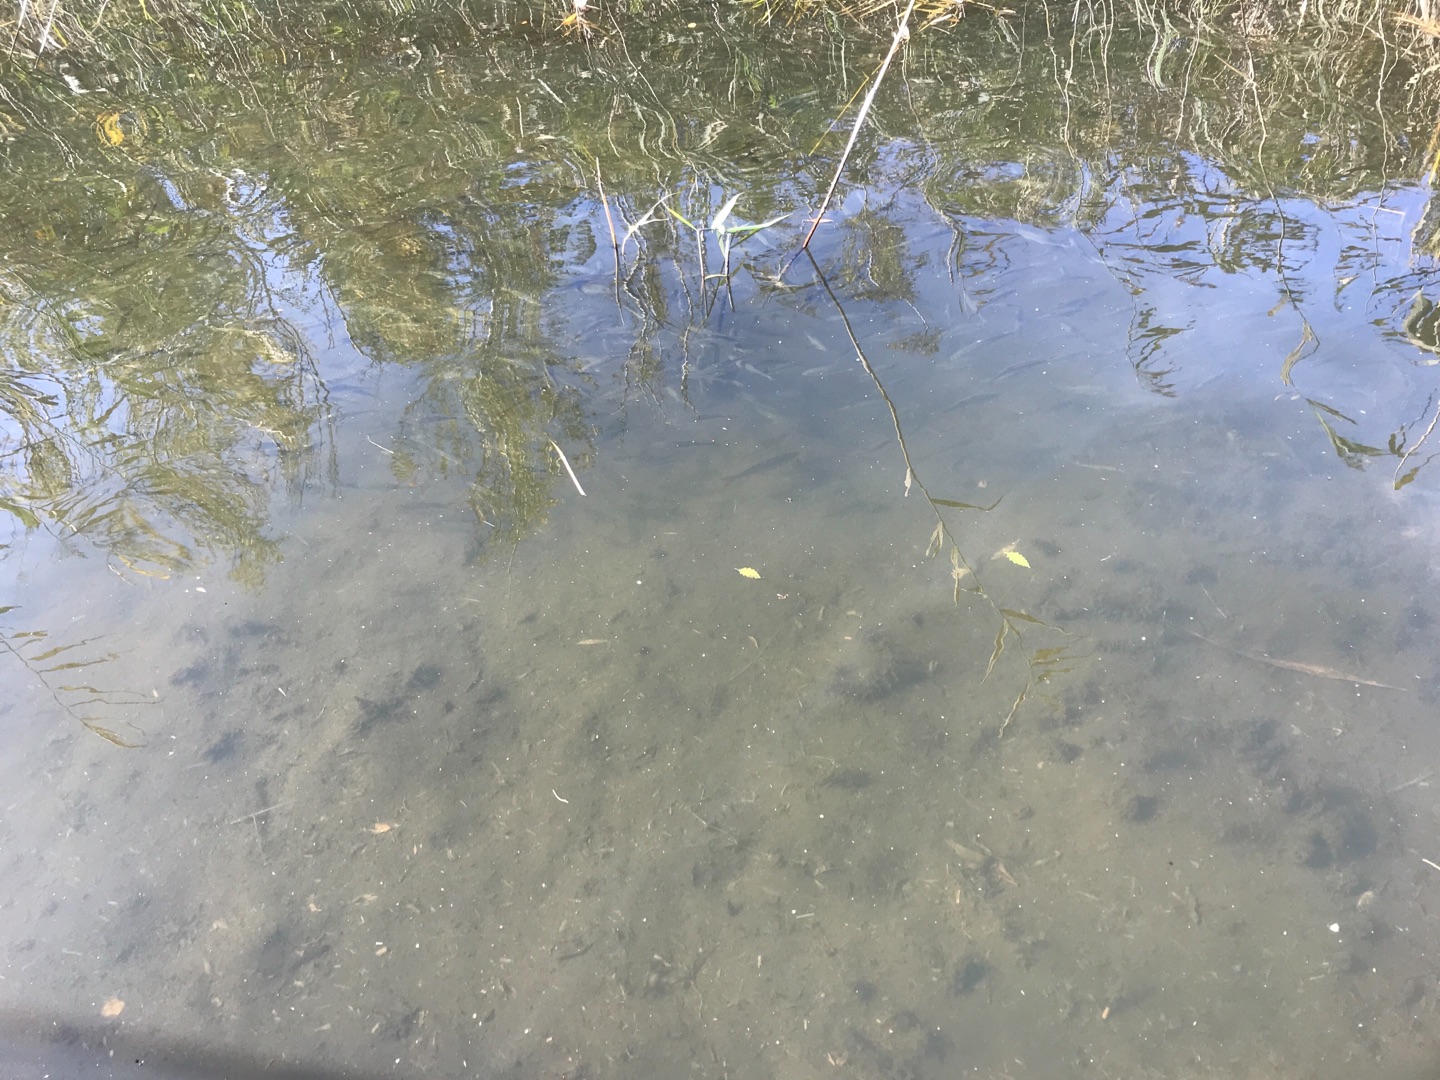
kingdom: Animalia
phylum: Chordata
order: Cypriniformes
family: Cyprinidae
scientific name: Cyprinidae
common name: Karpefamilien
